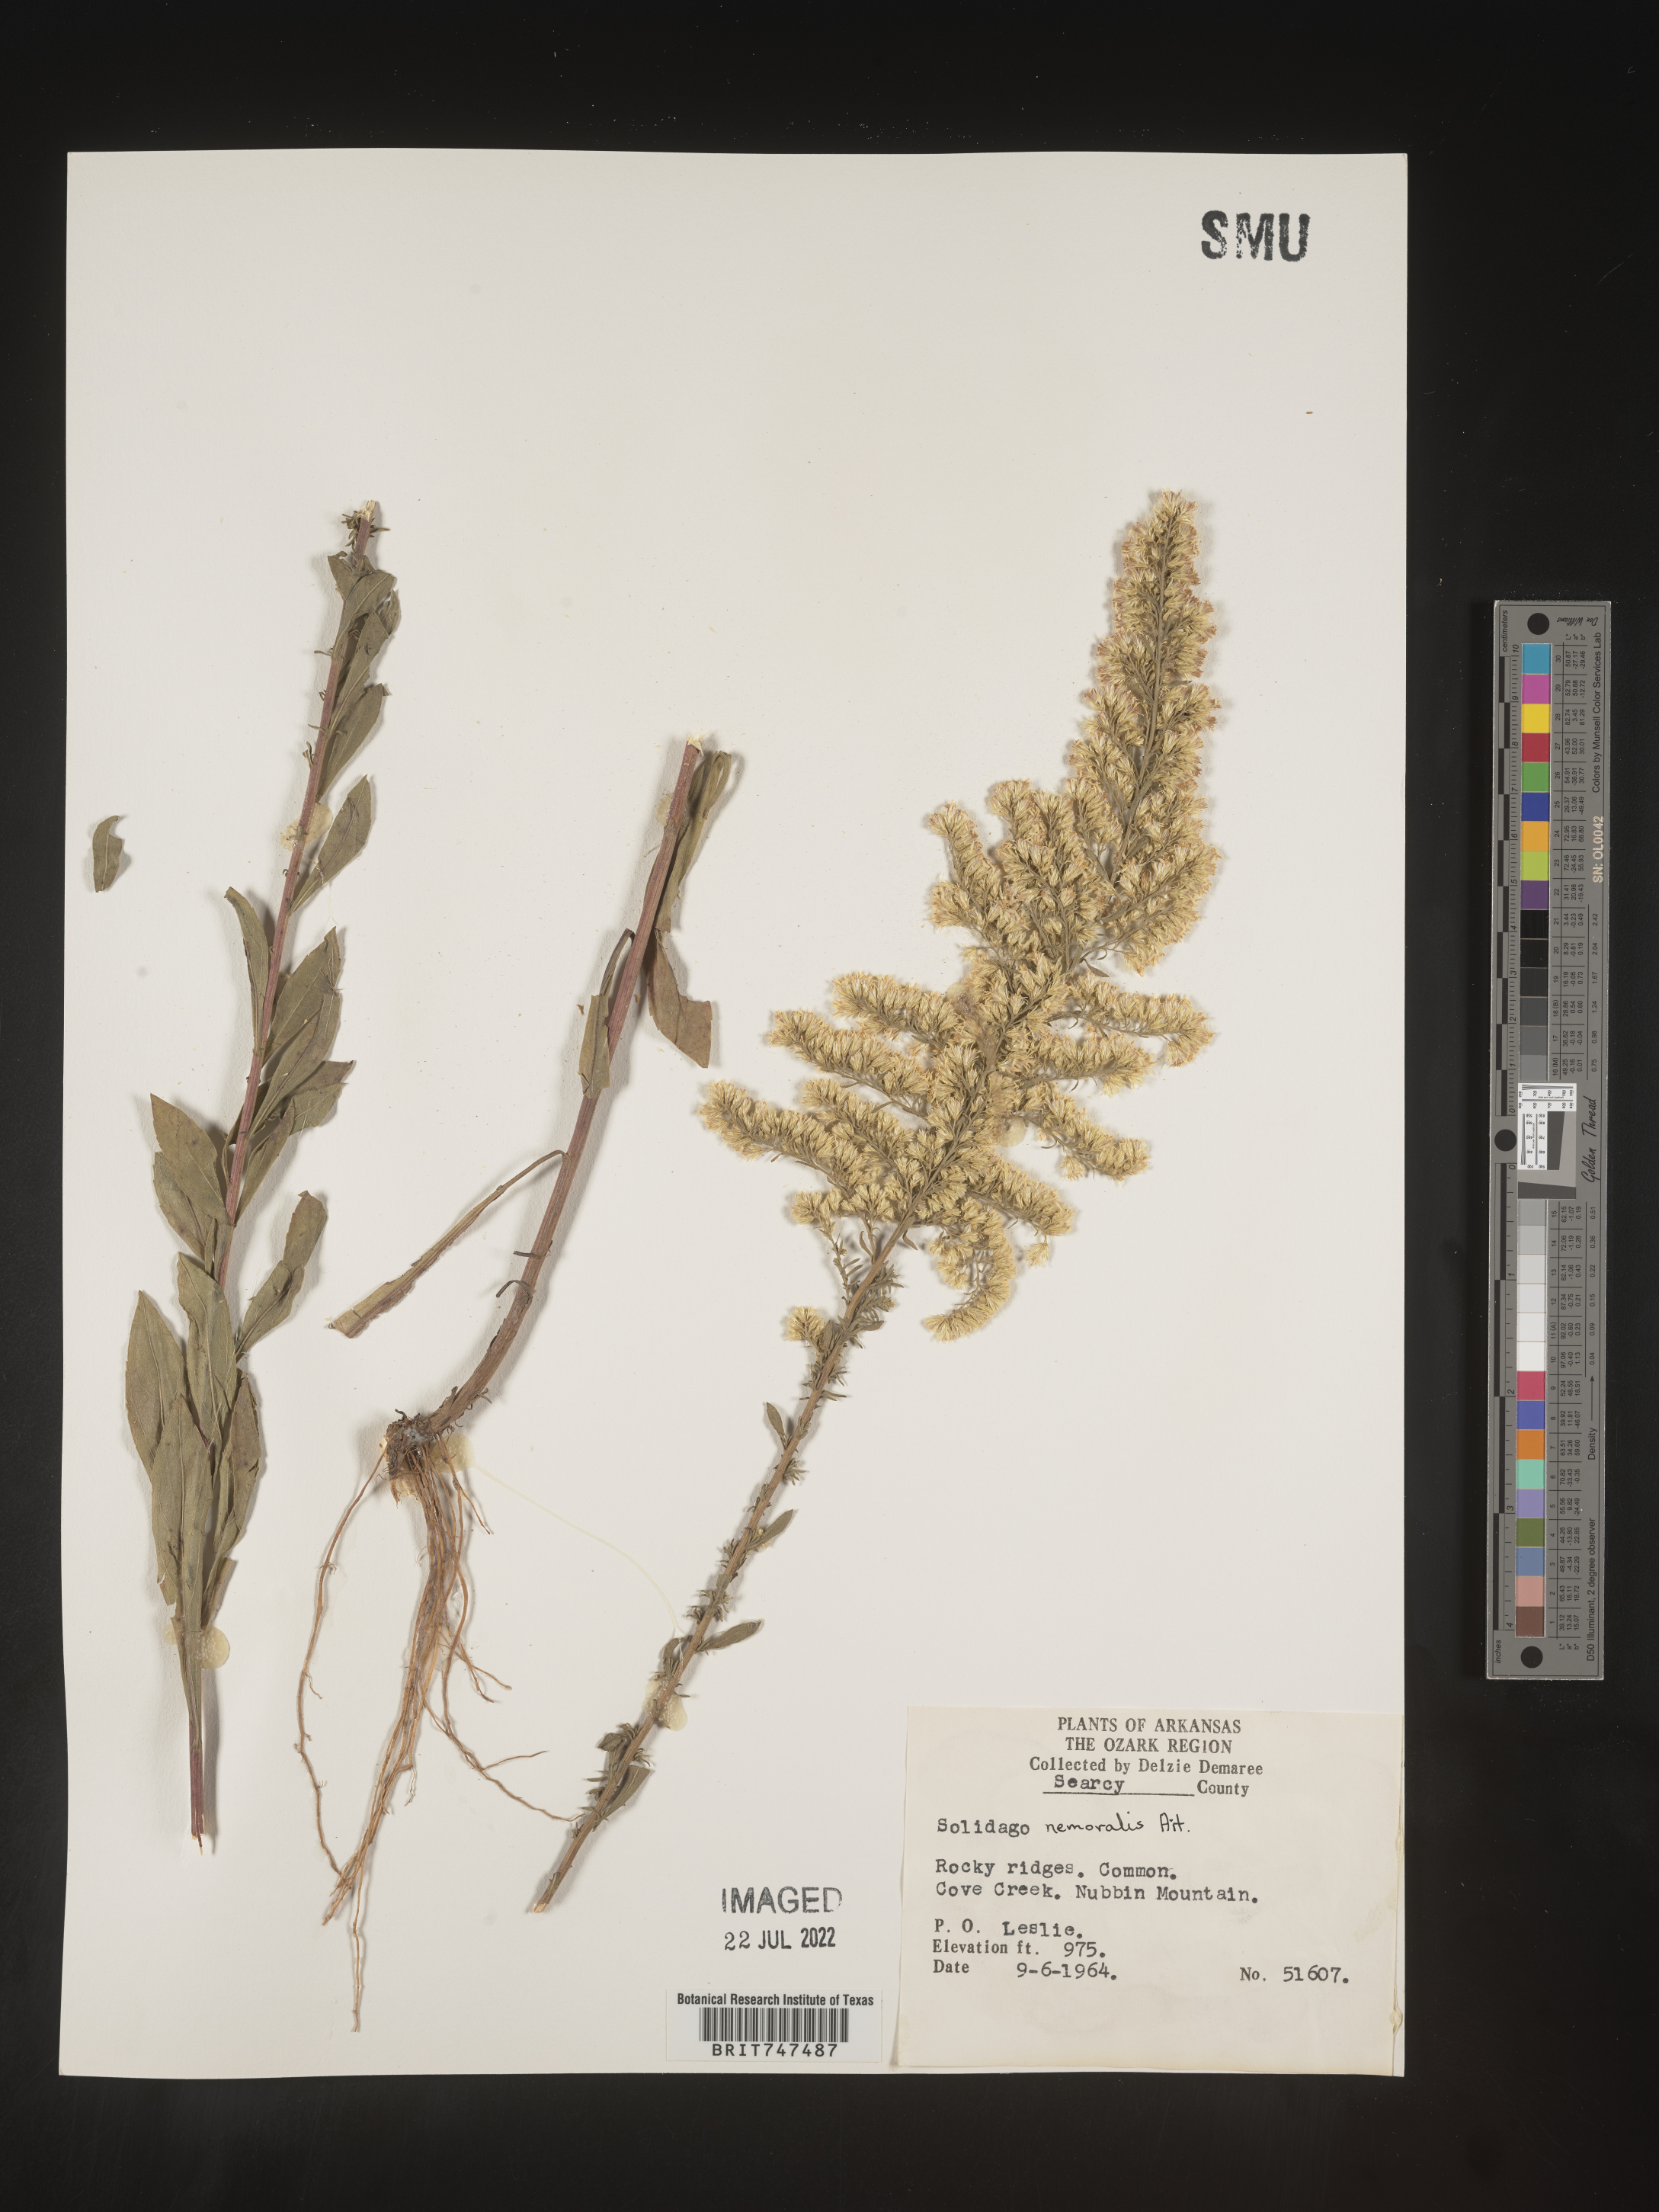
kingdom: Plantae
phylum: Tracheophyta
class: Magnoliopsida
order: Asterales
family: Asteraceae
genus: Solidago
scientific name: Solidago nemoralis
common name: Grey goldenrod
